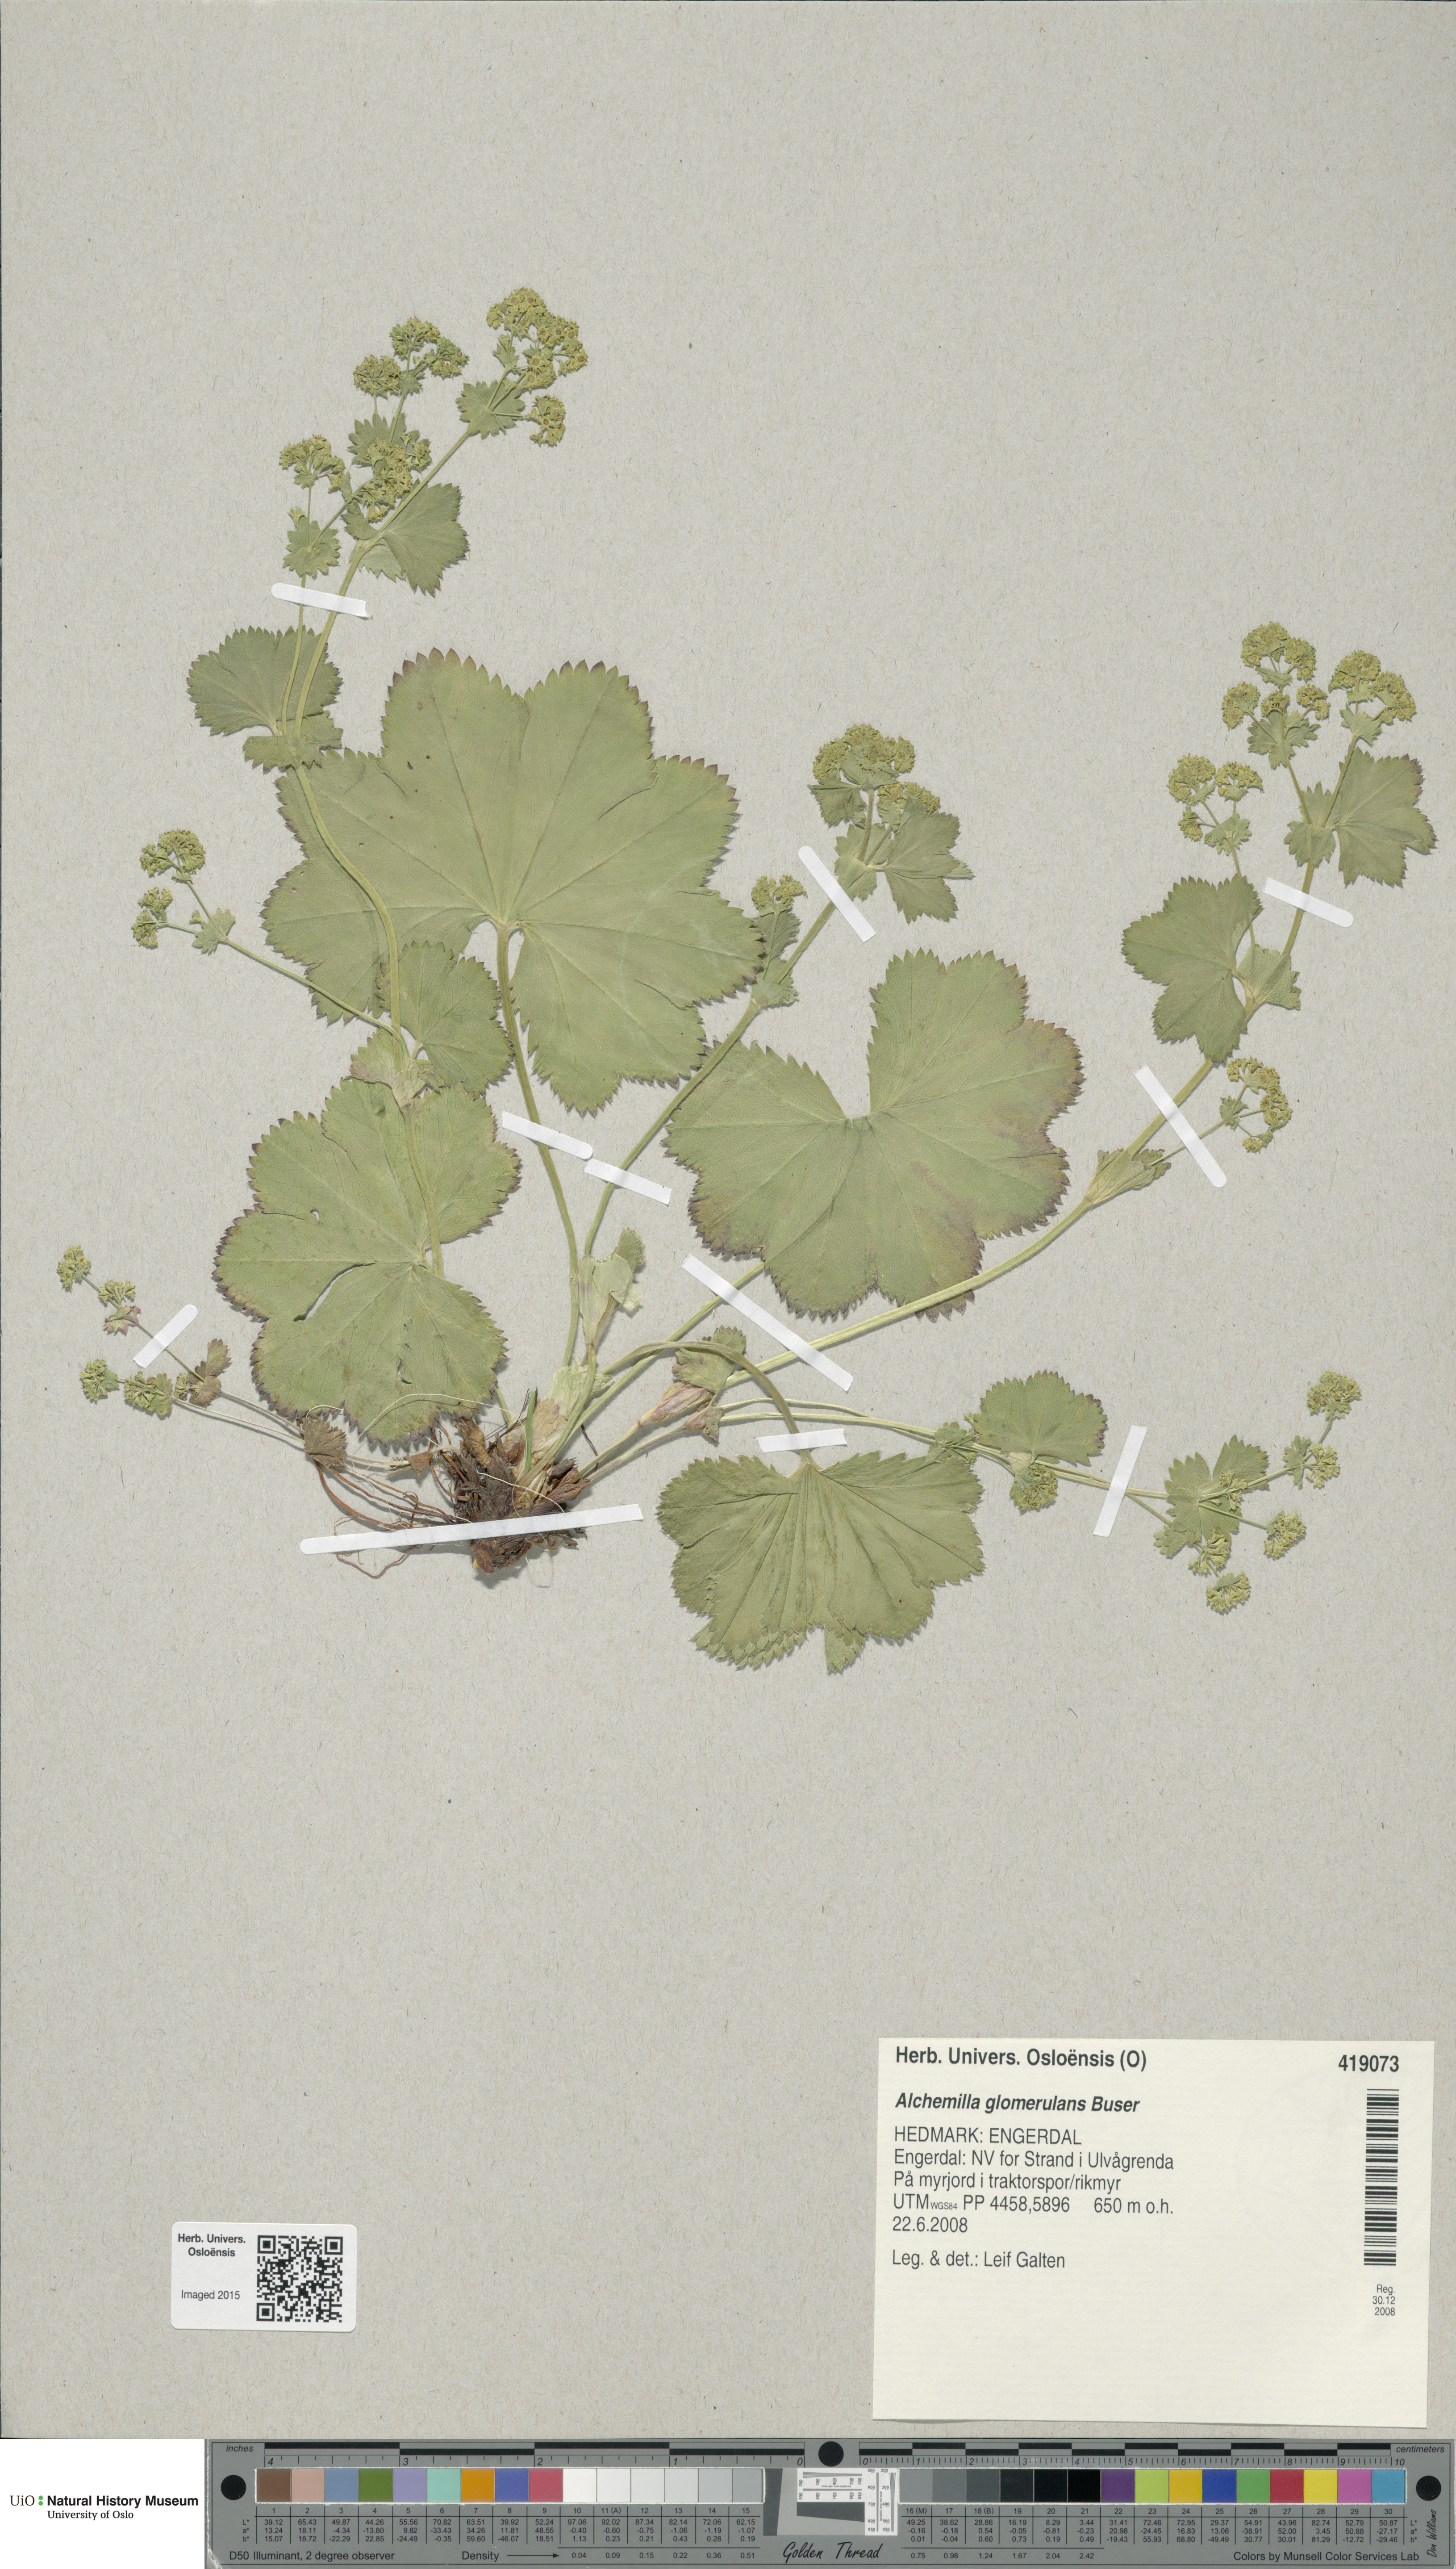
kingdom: Plantae
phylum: Tracheophyta
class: Magnoliopsida
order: Rosales
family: Rosaceae
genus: Alchemilla
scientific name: Alchemilla glomerulans
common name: Clustered lady's mantle
